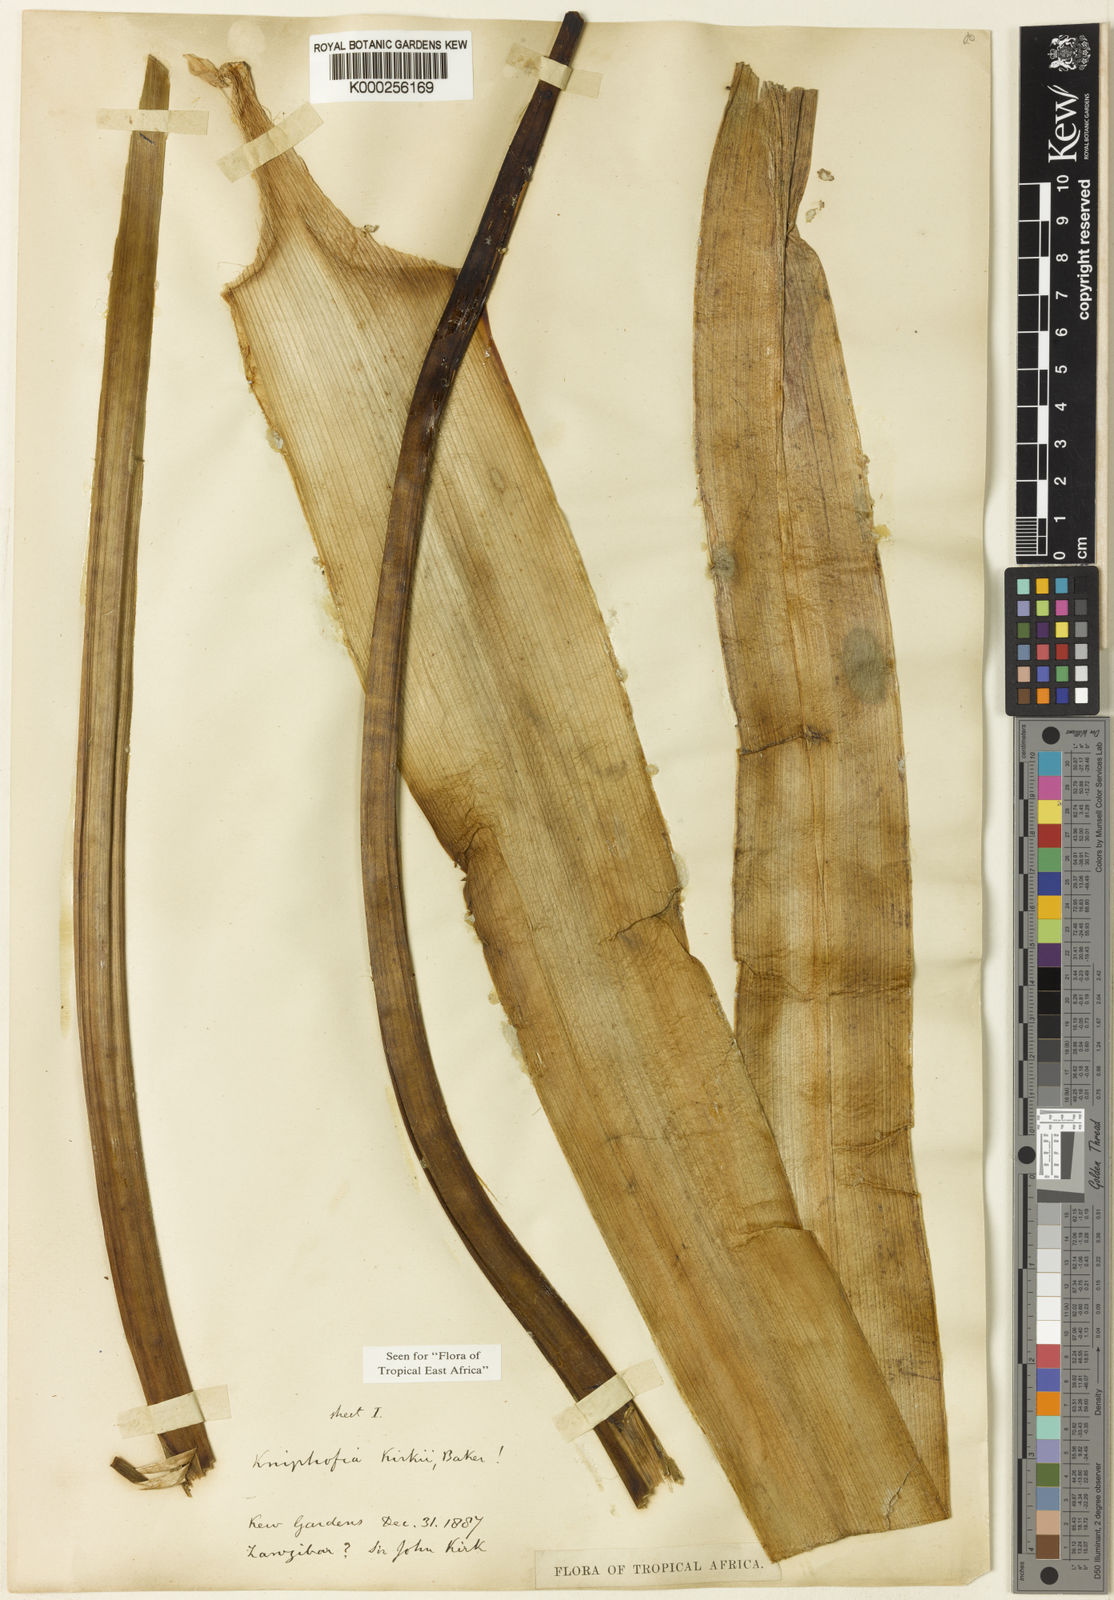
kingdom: Plantae
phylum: Tracheophyta
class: Liliopsida
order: Asparagales
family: Asphodelaceae
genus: Kniphofia
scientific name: Kniphofia kirkii
